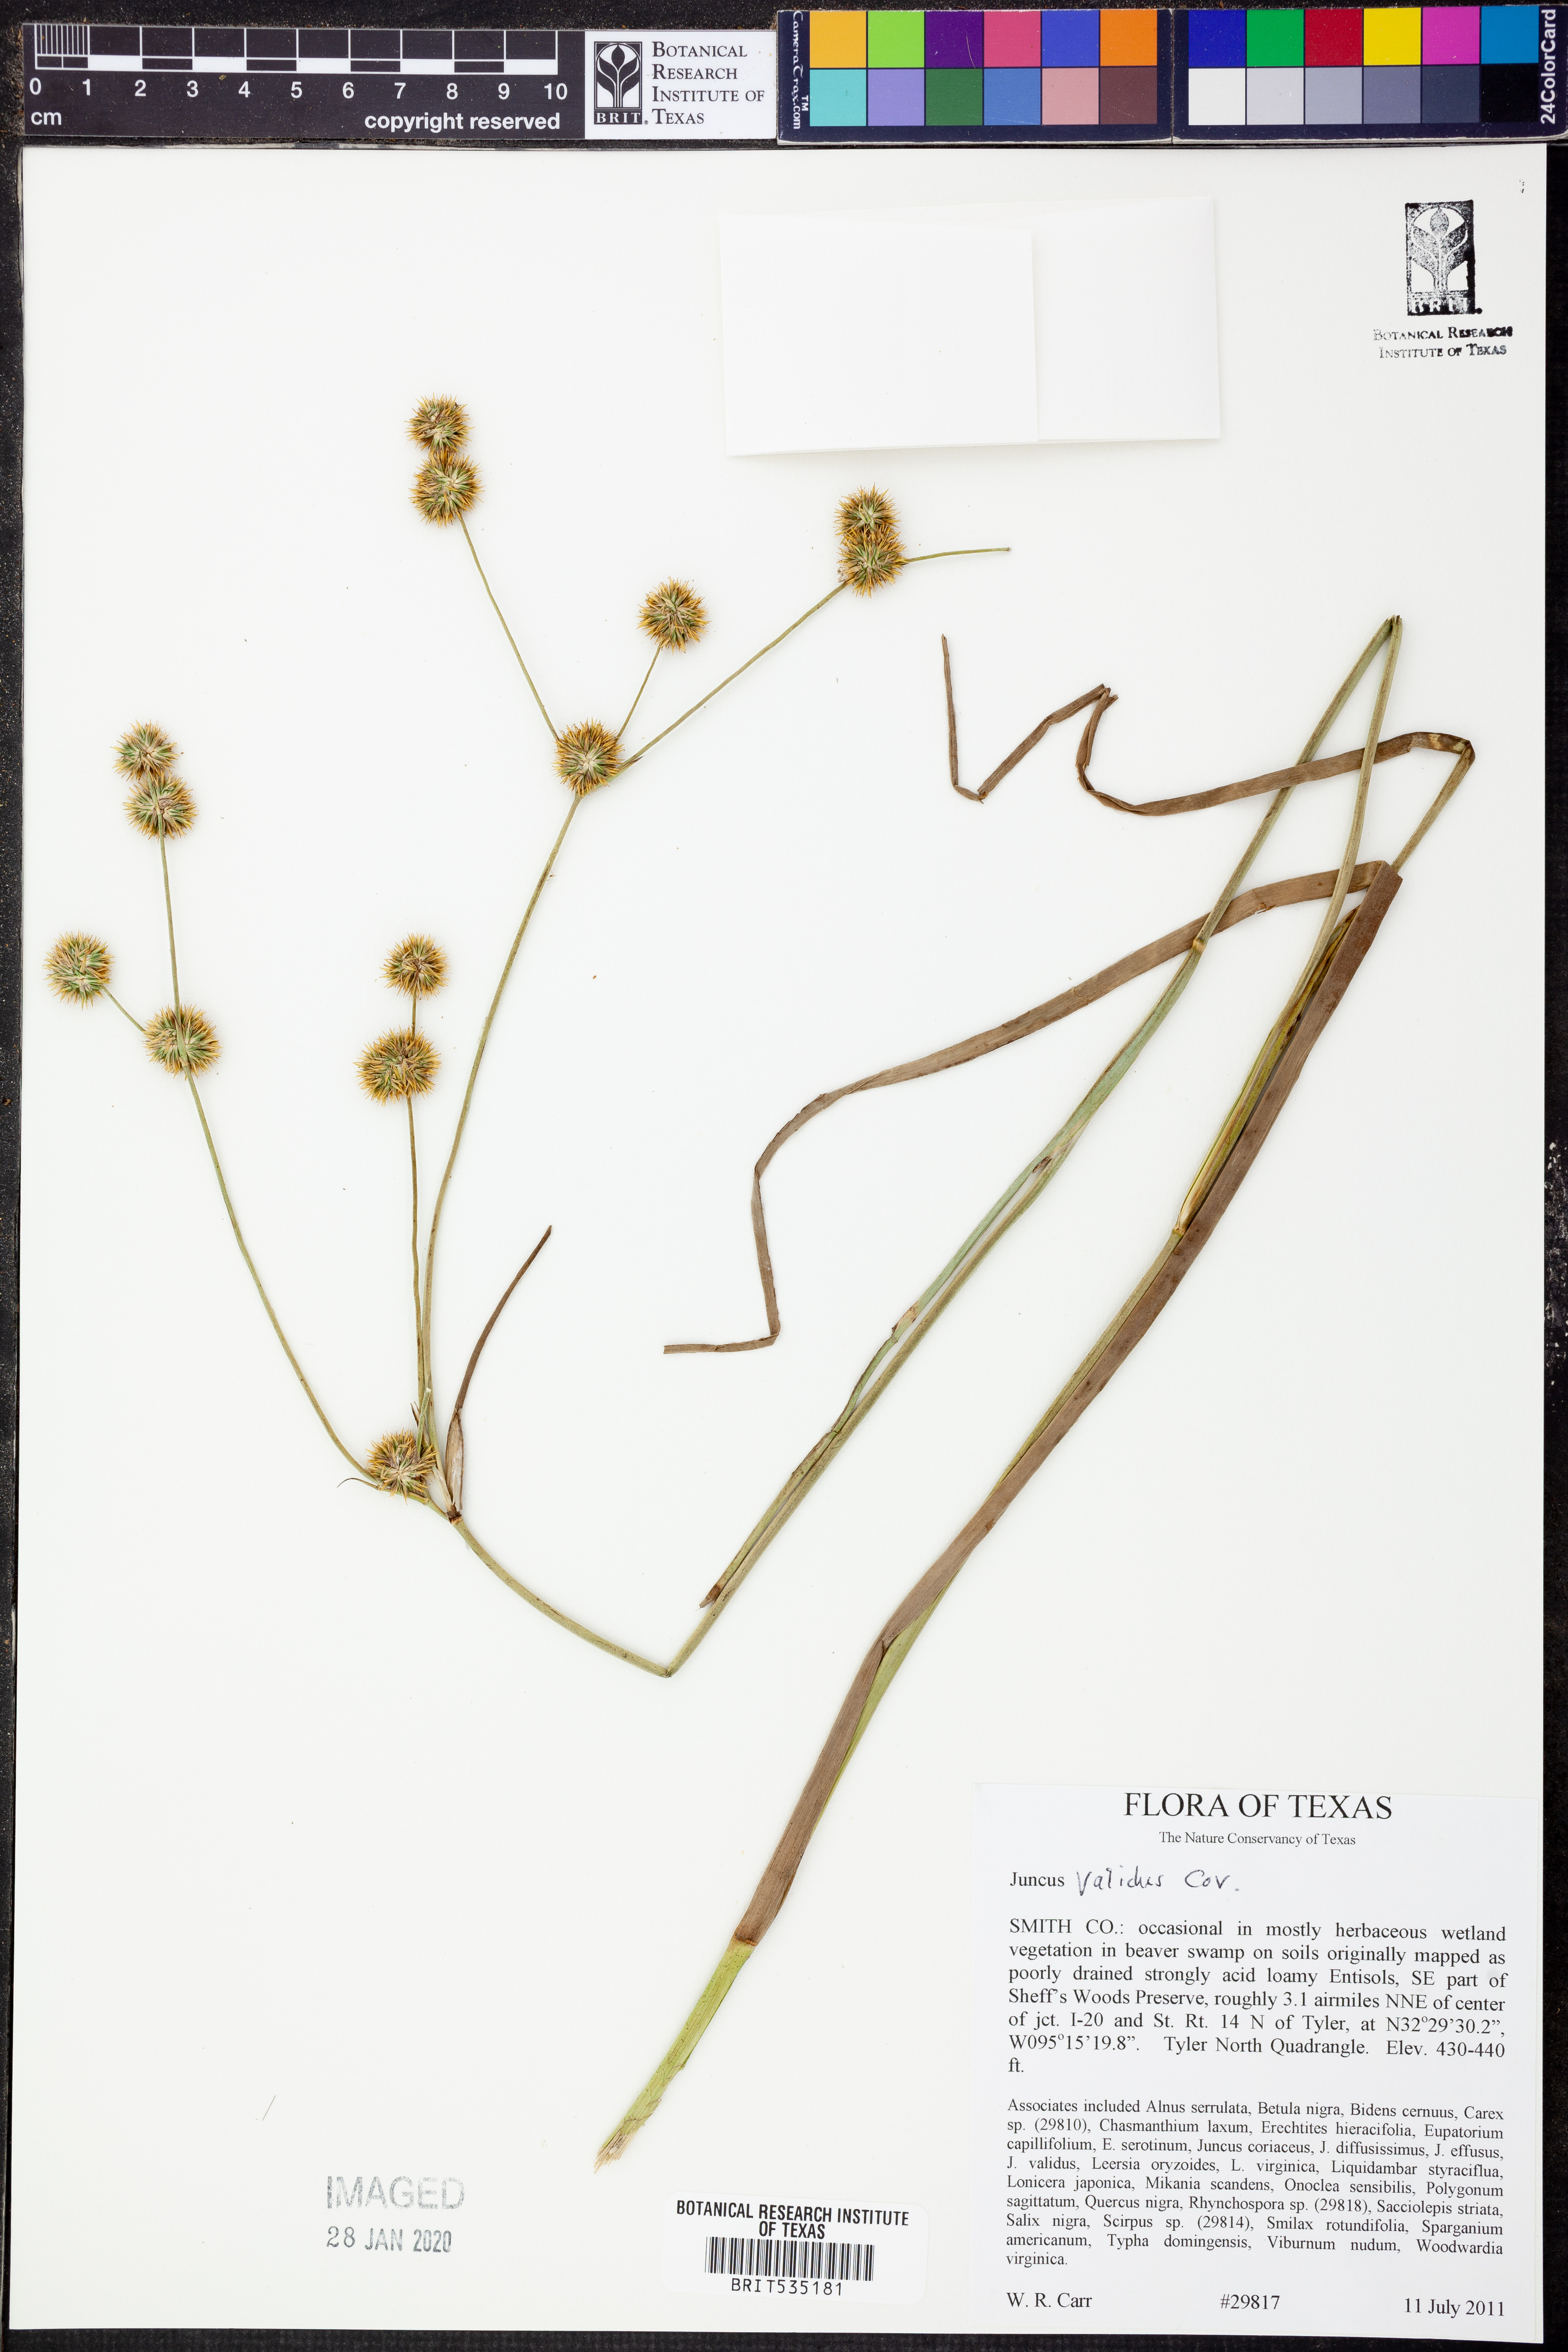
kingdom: Plantae
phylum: Tracheophyta
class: Liliopsida
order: Poales
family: Juncaceae
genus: Juncus
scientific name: Juncus validus
